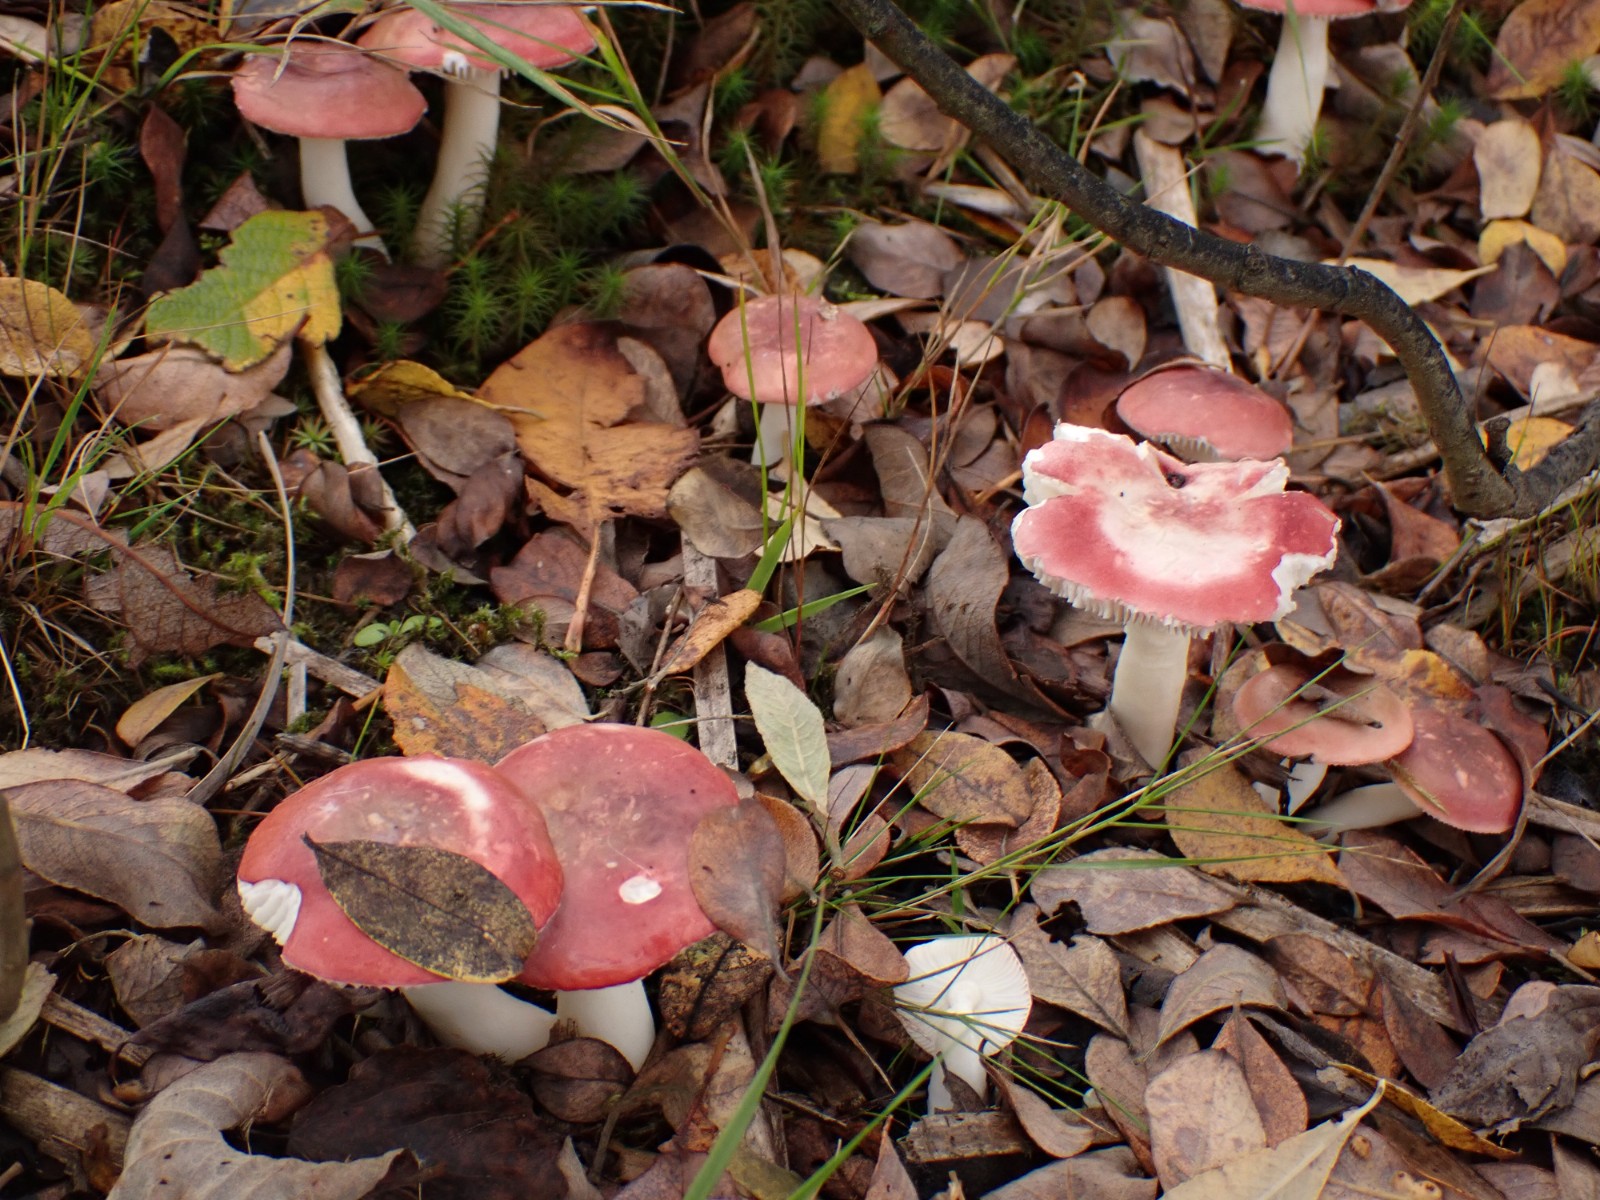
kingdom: Fungi
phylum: Basidiomycota
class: Agaricomycetes
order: Russulales
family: Russulaceae
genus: Russula
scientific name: Russula laccata
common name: klit-skørhat
